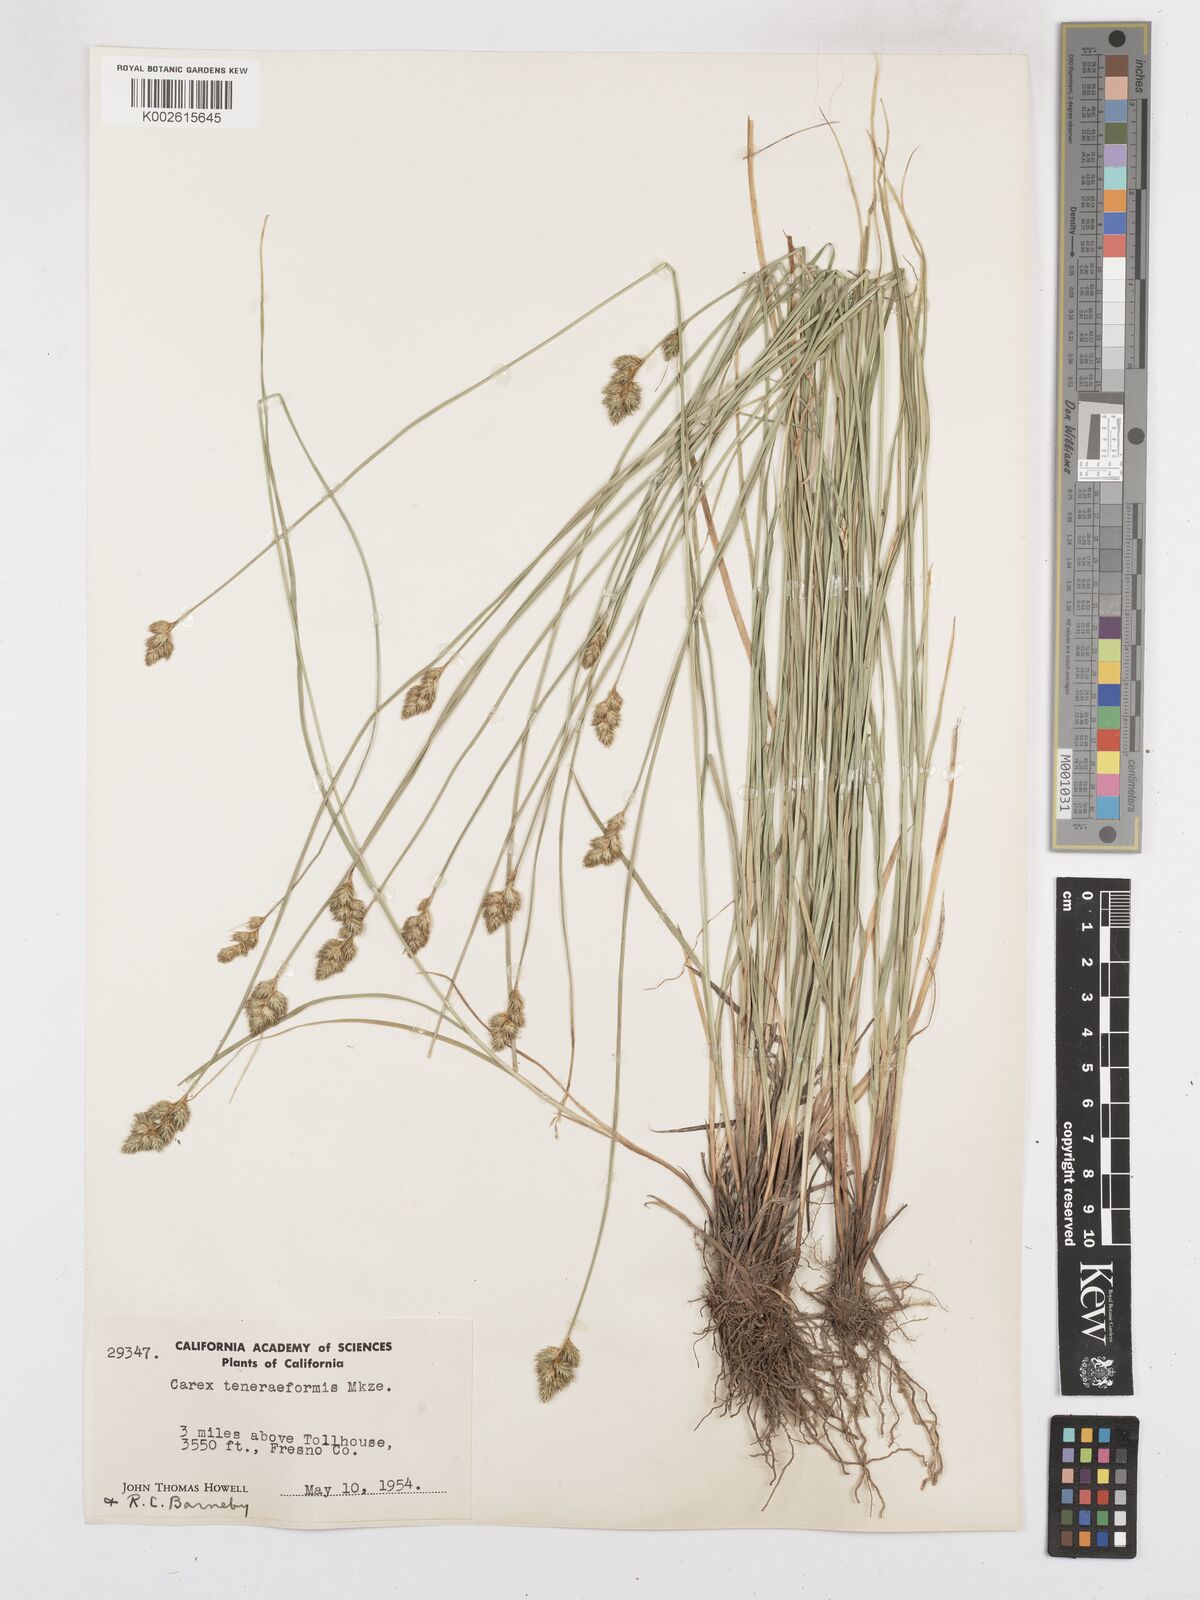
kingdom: Plantae
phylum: Tracheophyta
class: Liliopsida
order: Poales
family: Cyperaceae
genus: Carex
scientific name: Carex subfusca
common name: Brown sedge
